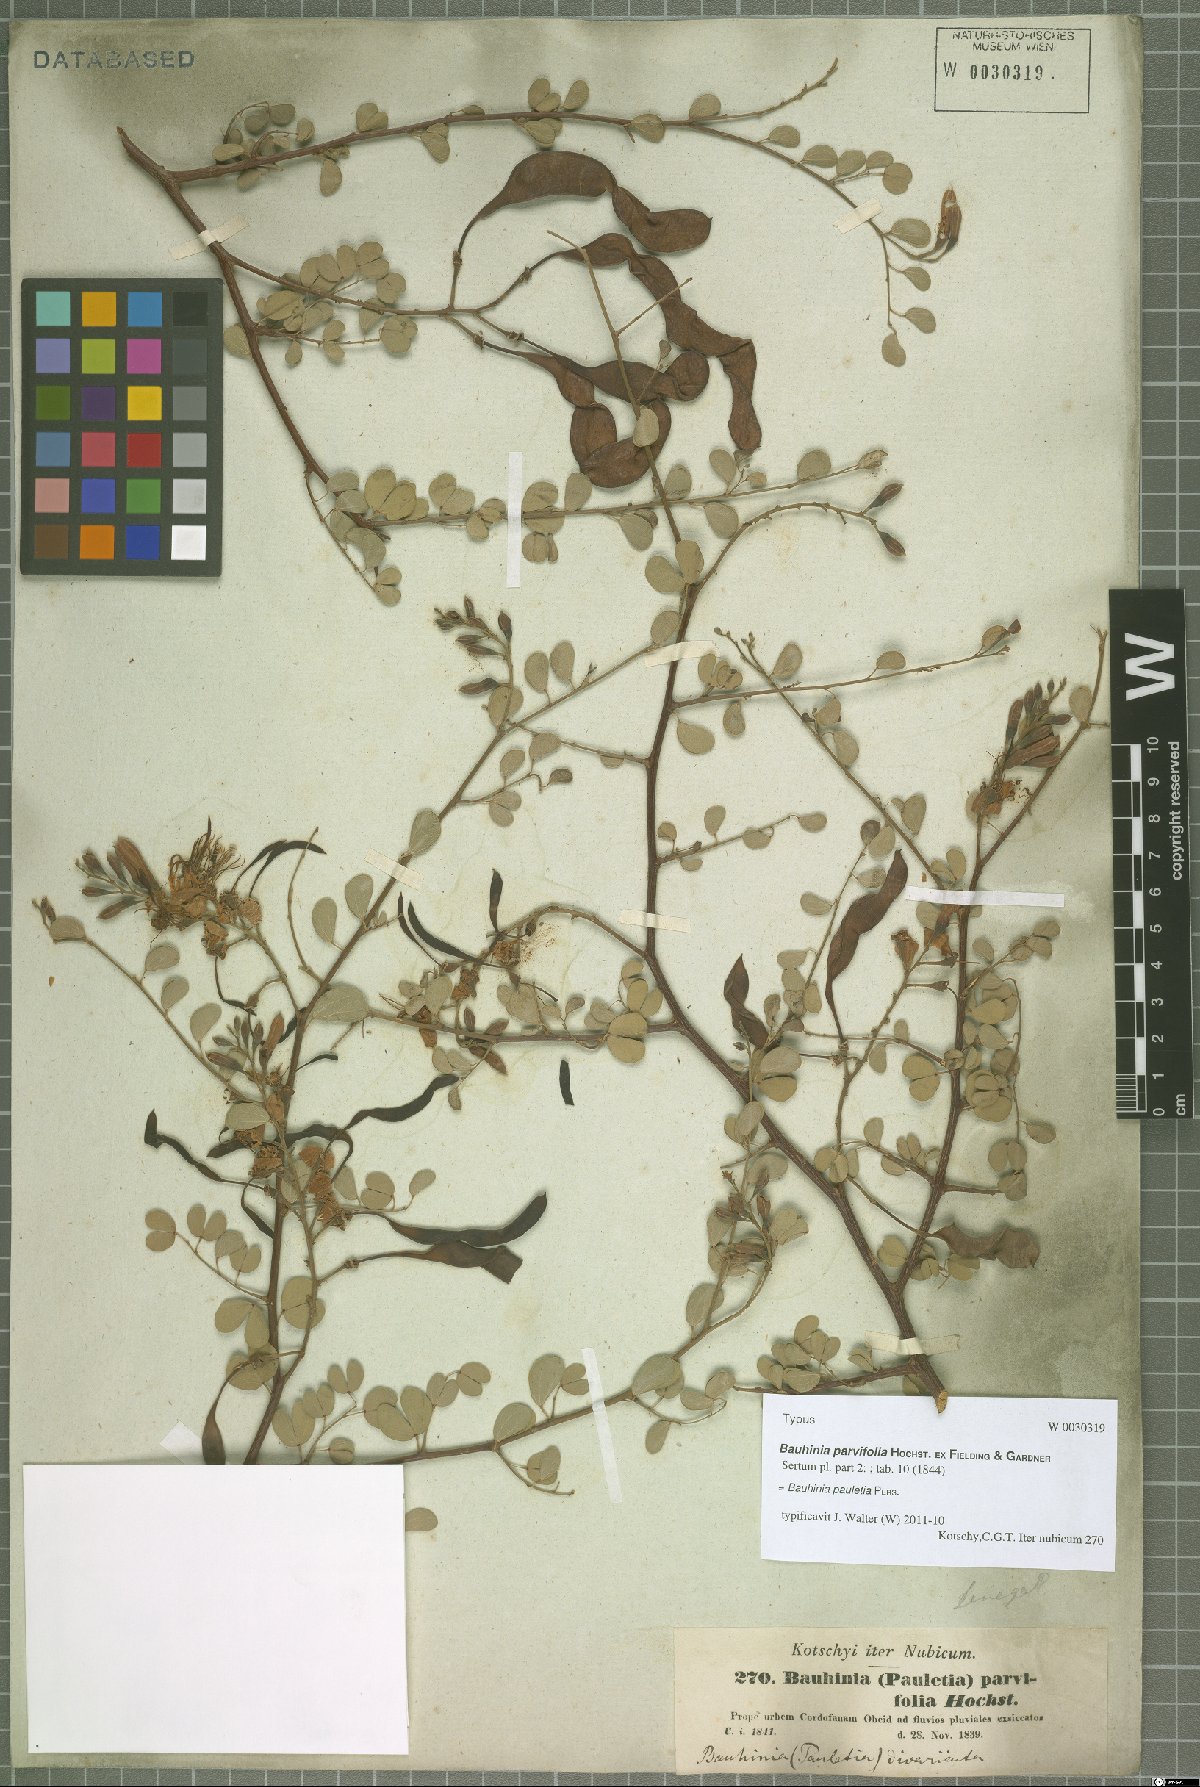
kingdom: Plantae
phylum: Tracheophyta
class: Magnoliopsida
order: Fabales
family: Fabaceae
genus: Bauhinia
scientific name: Bauhinia pauletia
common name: Railway-fence bauhinia
